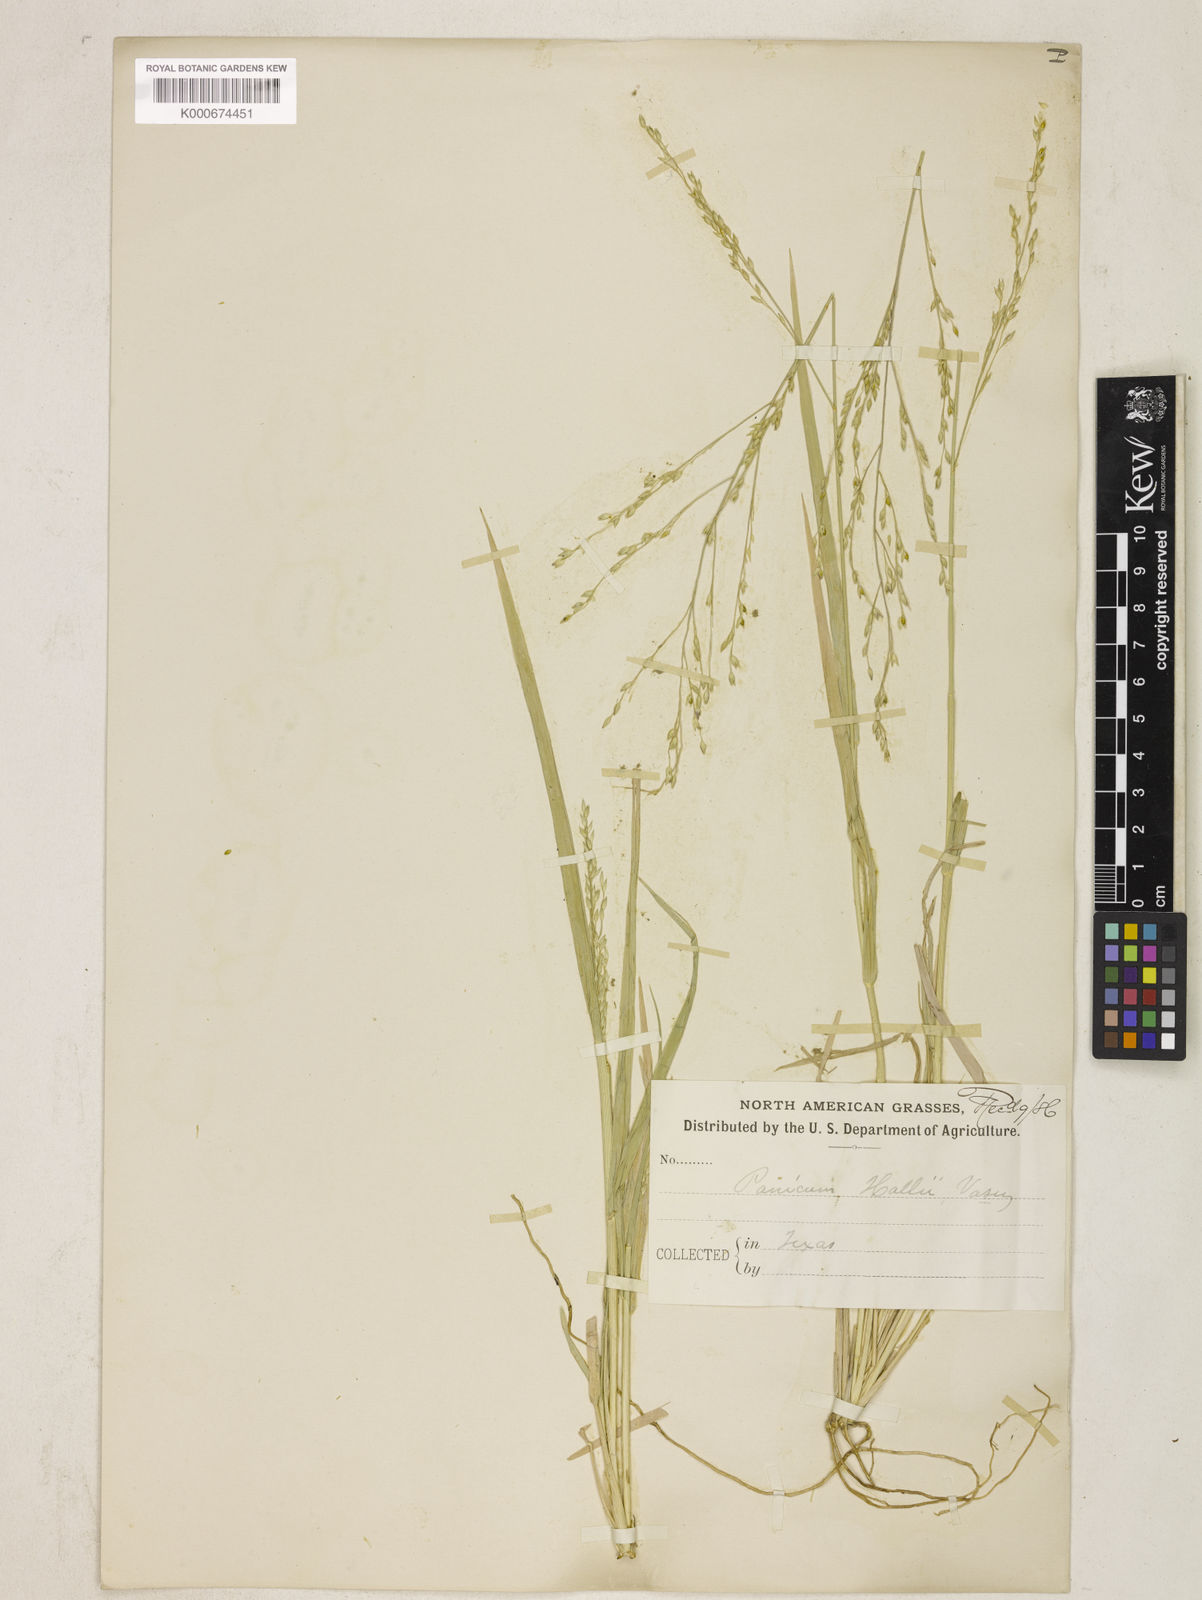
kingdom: Plantae
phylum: Tracheophyta
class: Liliopsida
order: Poales
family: Poaceae
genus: Panicum
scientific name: Panicum hallii
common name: Hall's witchgrass
